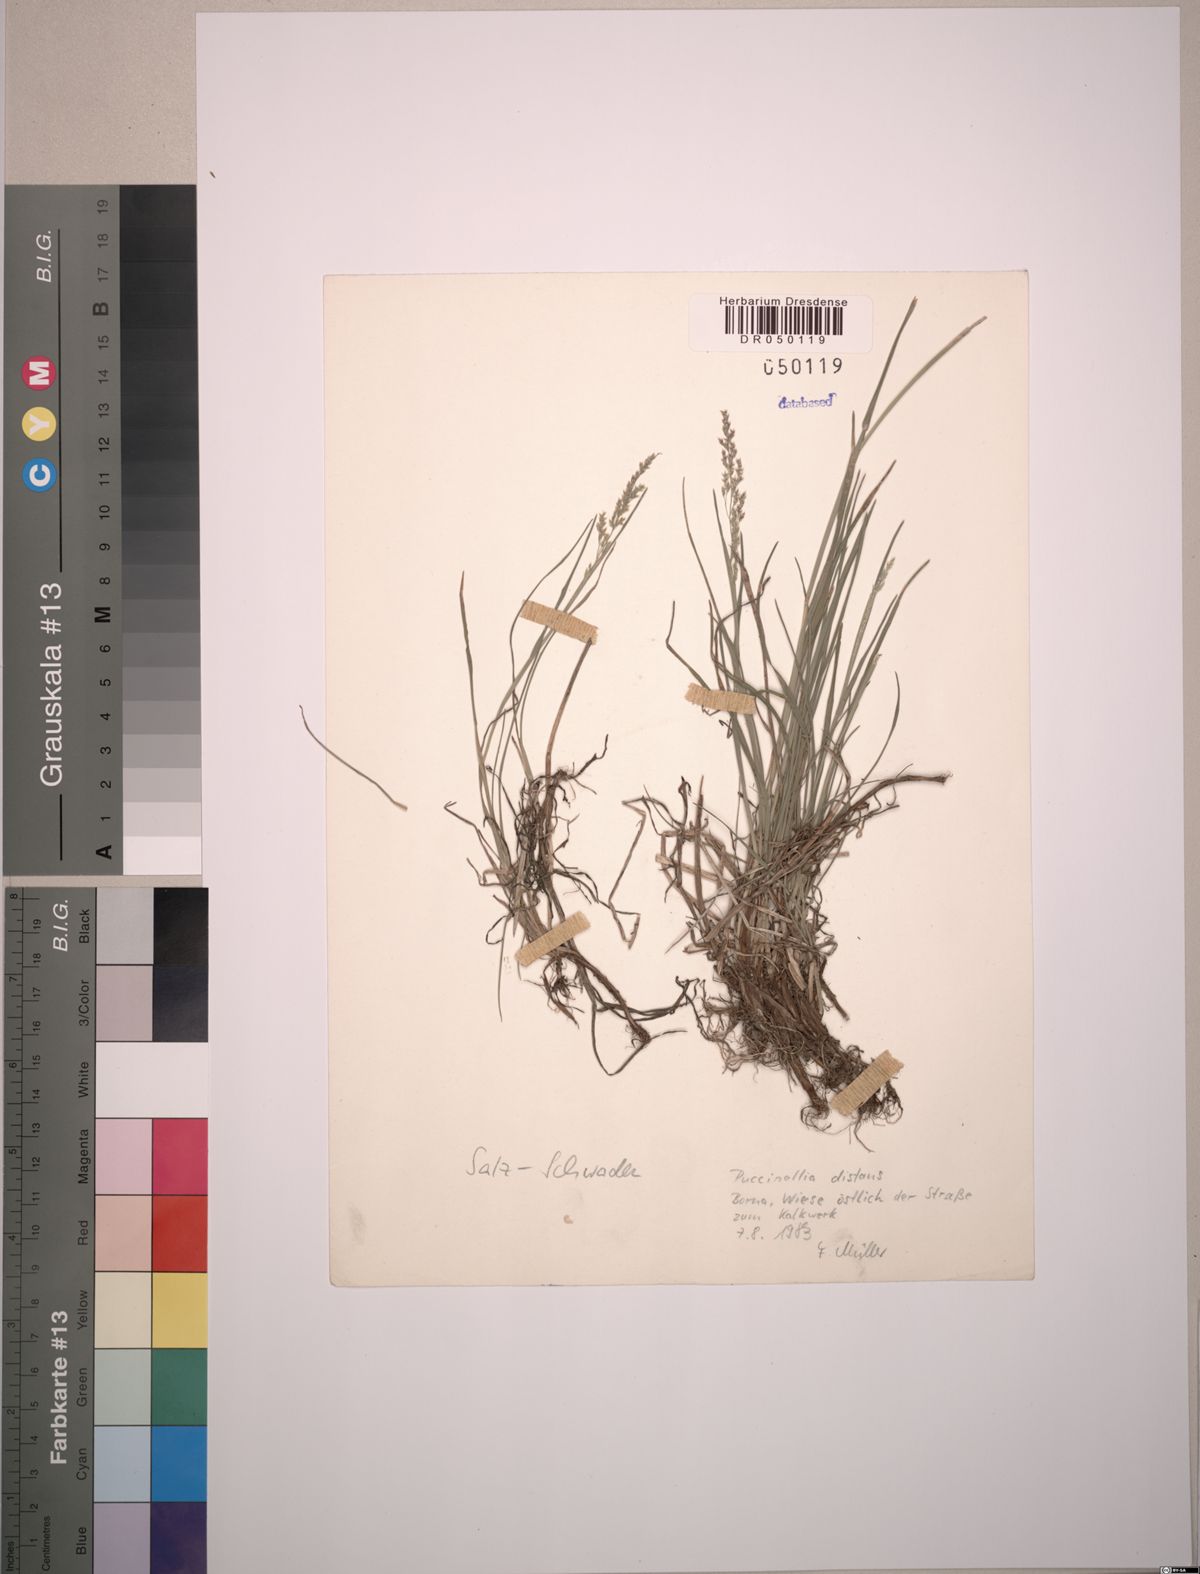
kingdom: Plantae
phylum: Tracheophyta
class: Liliopsida
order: Poales
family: Poaceae
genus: Puccinellia
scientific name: Puccinellia distans
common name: Weeping alkaligrass
